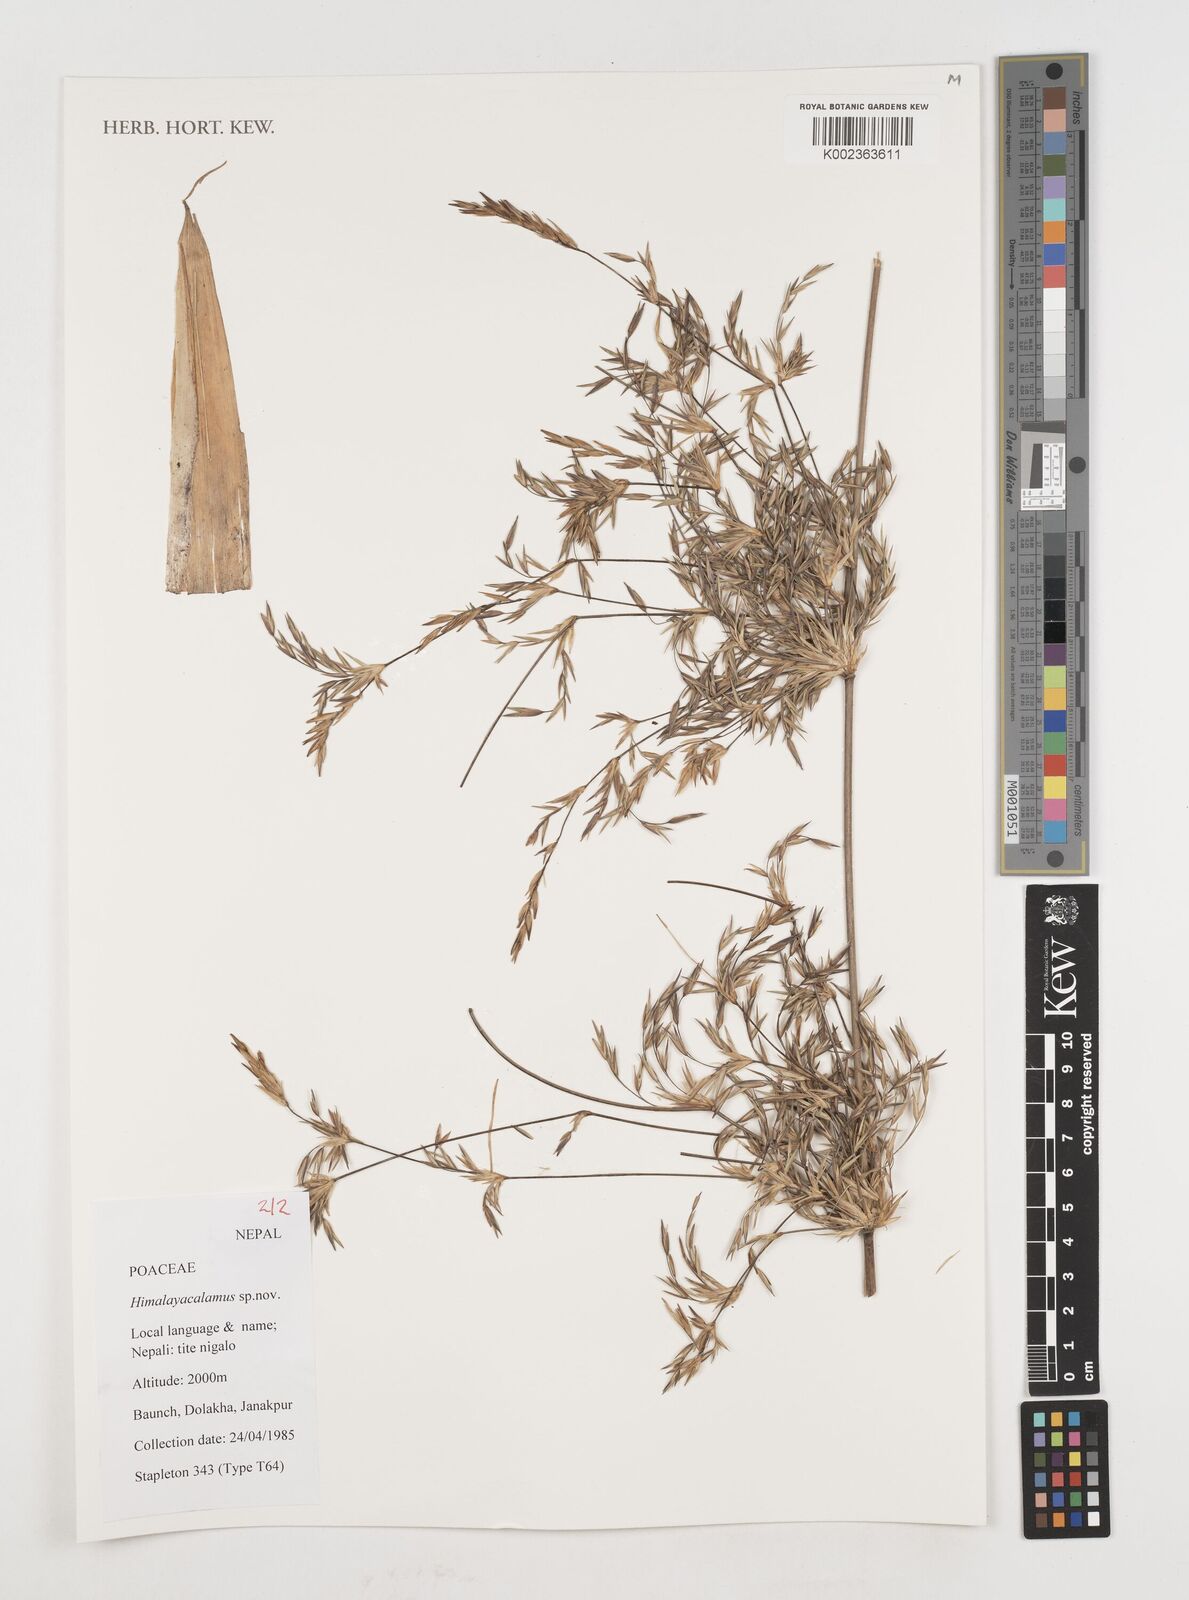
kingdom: Plantae
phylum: Tracheophyta
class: Liliopsida
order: Poales
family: Poaceae
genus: Himalayacalamus
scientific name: Himalayacalamus
